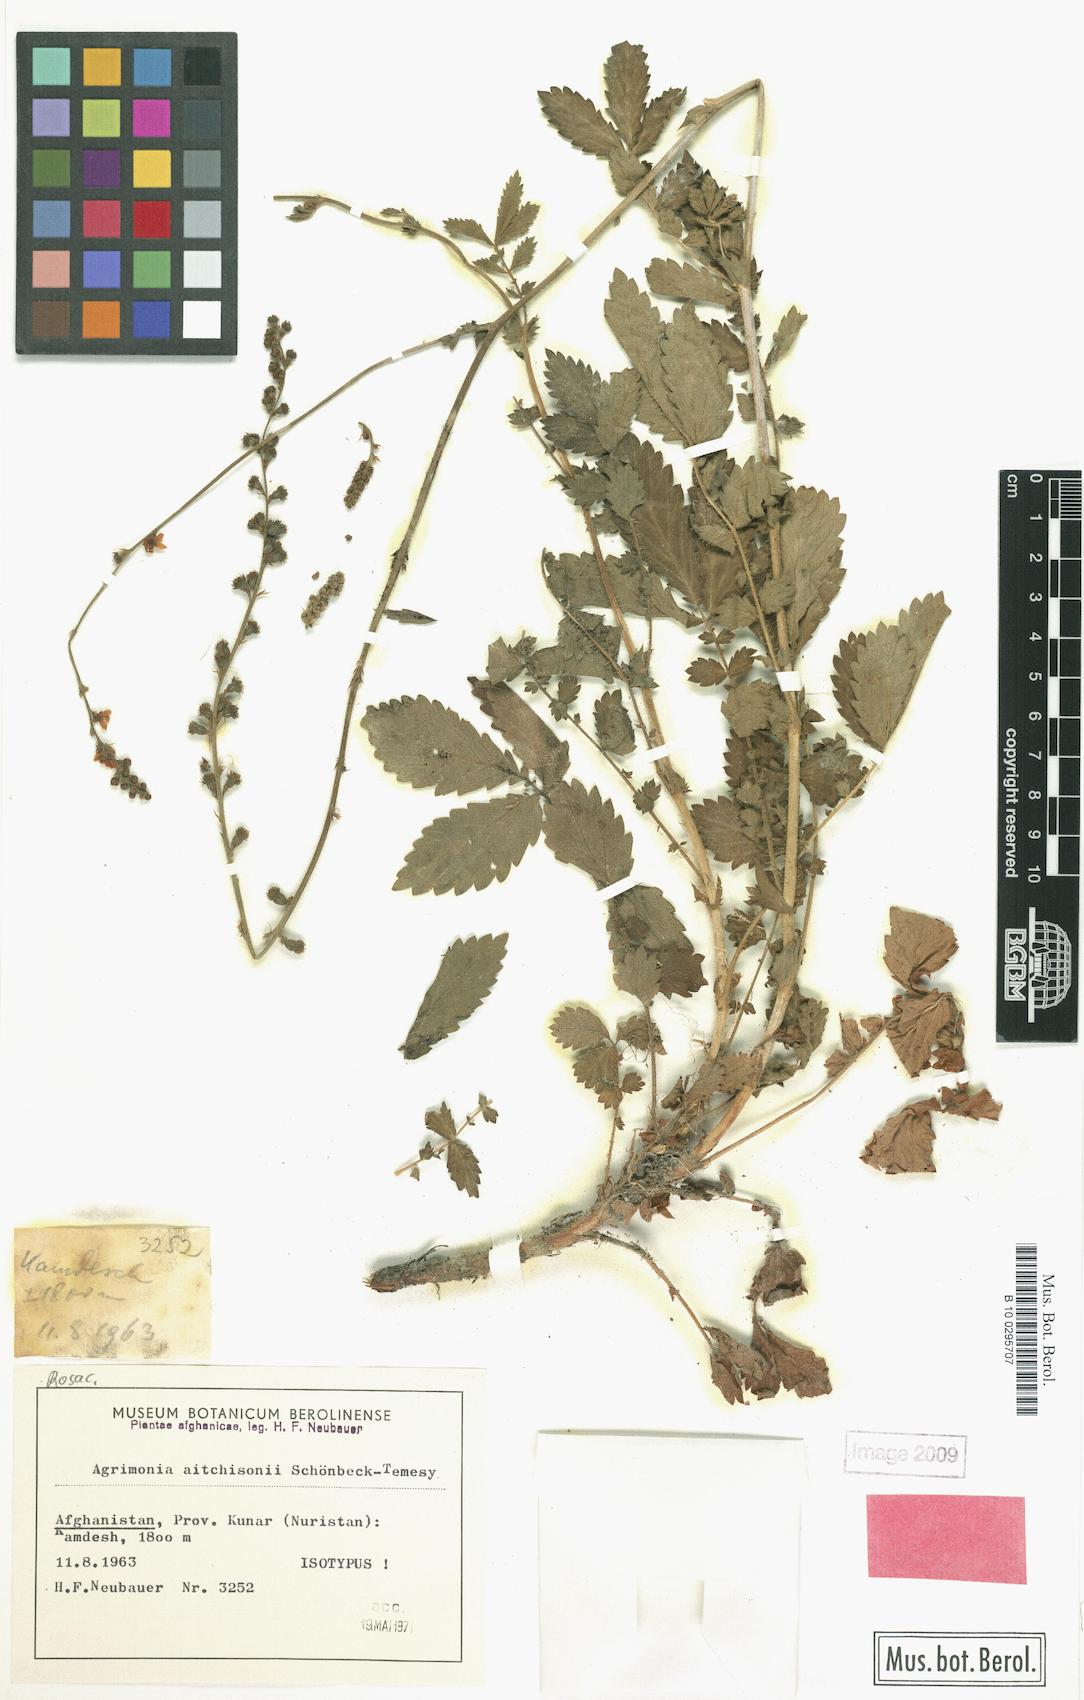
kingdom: Plantae
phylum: Tracheophyta
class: Magnoliopsida
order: Rosales
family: Rosaceae
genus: Agrimonia
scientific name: Agrimonia aitchisonii
